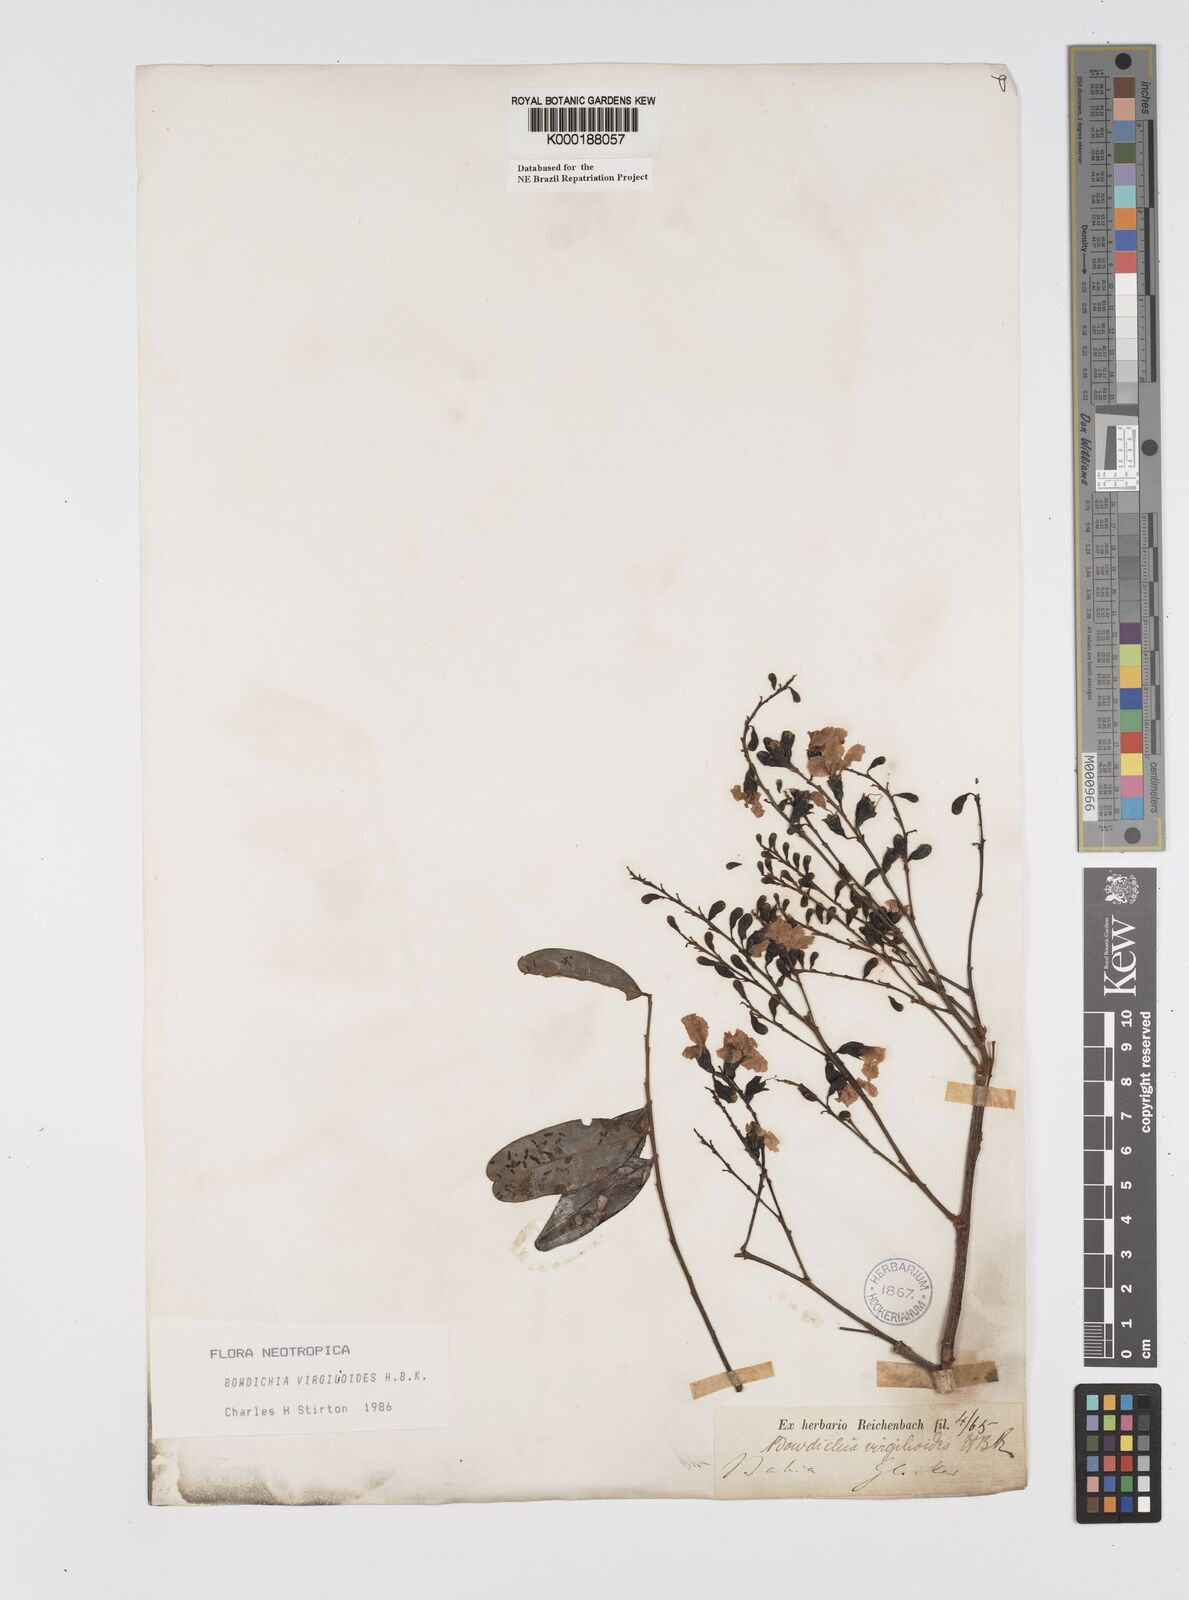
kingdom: Plantae
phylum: Tracheophyta
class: Magnoliopsida
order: Fabales
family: Fabaceae
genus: Bowdichia
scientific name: Bowdichia virgilioides
